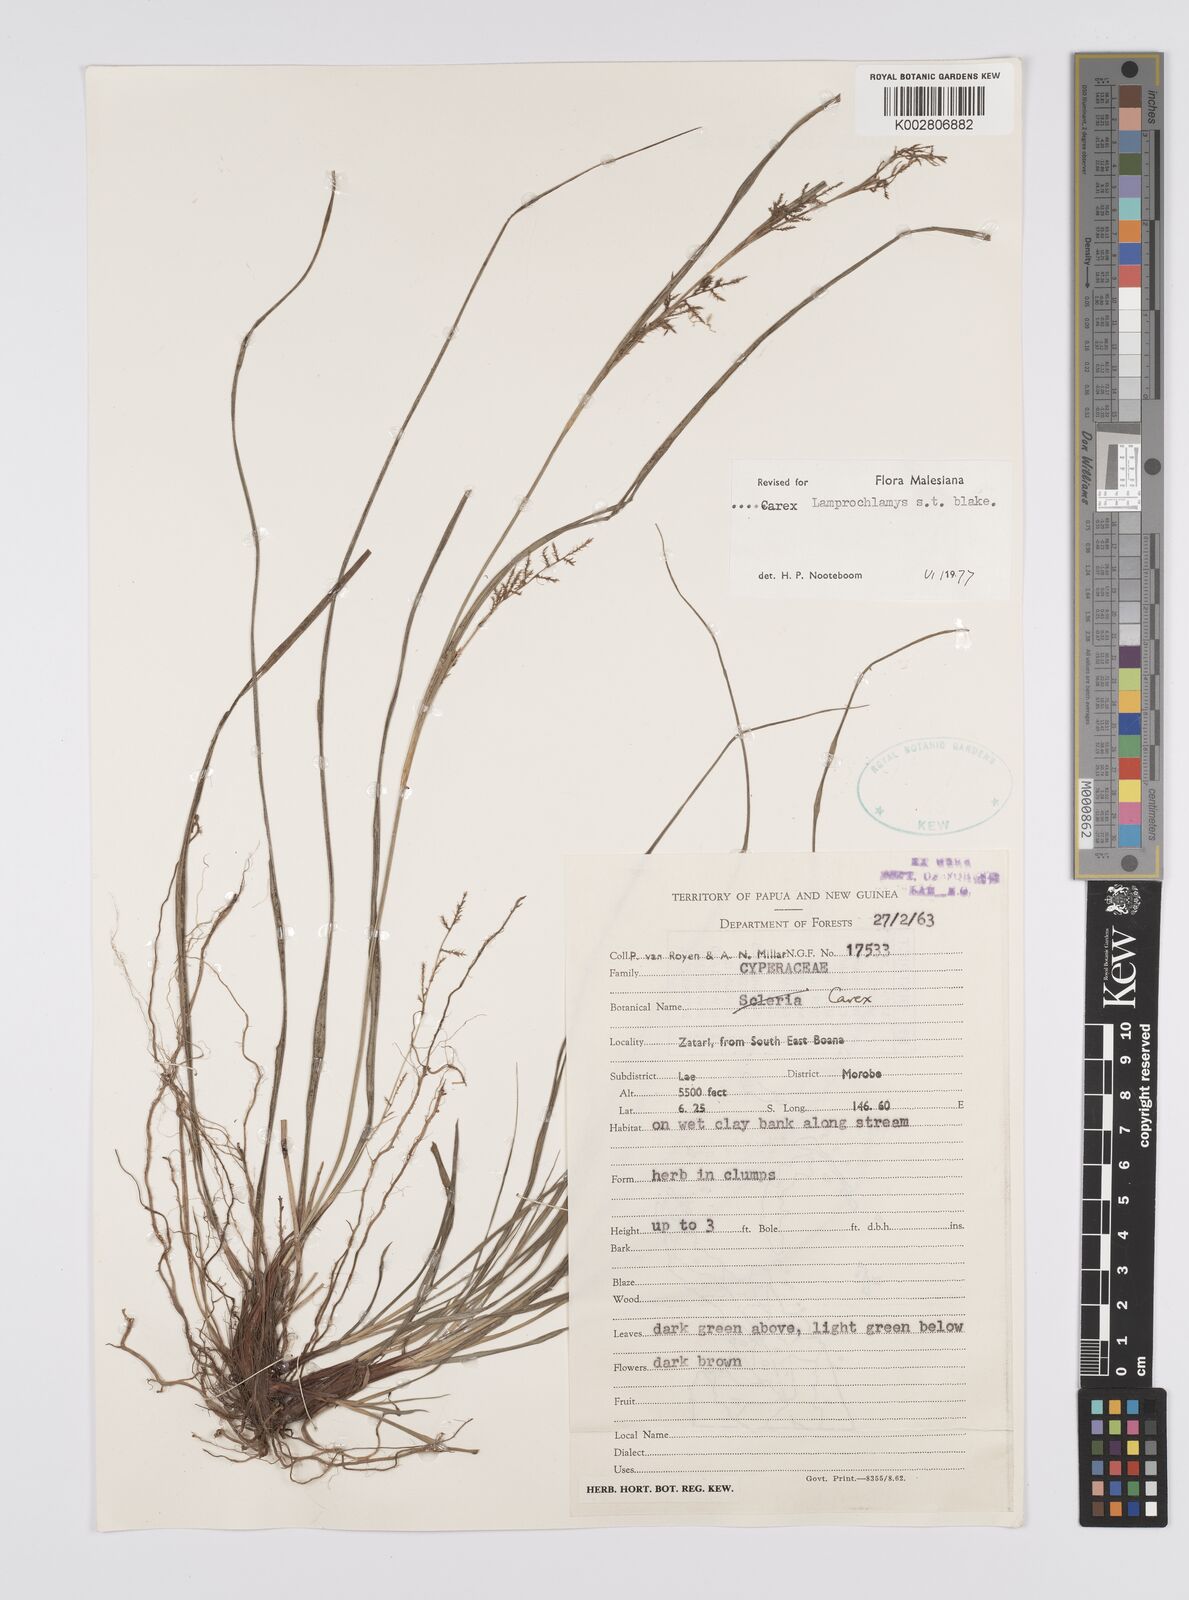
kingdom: Plantae
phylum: Tracheophyta
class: Liliopsida
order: Poales
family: Cyperaceae
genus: Carex
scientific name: Carex lamprochlamys
